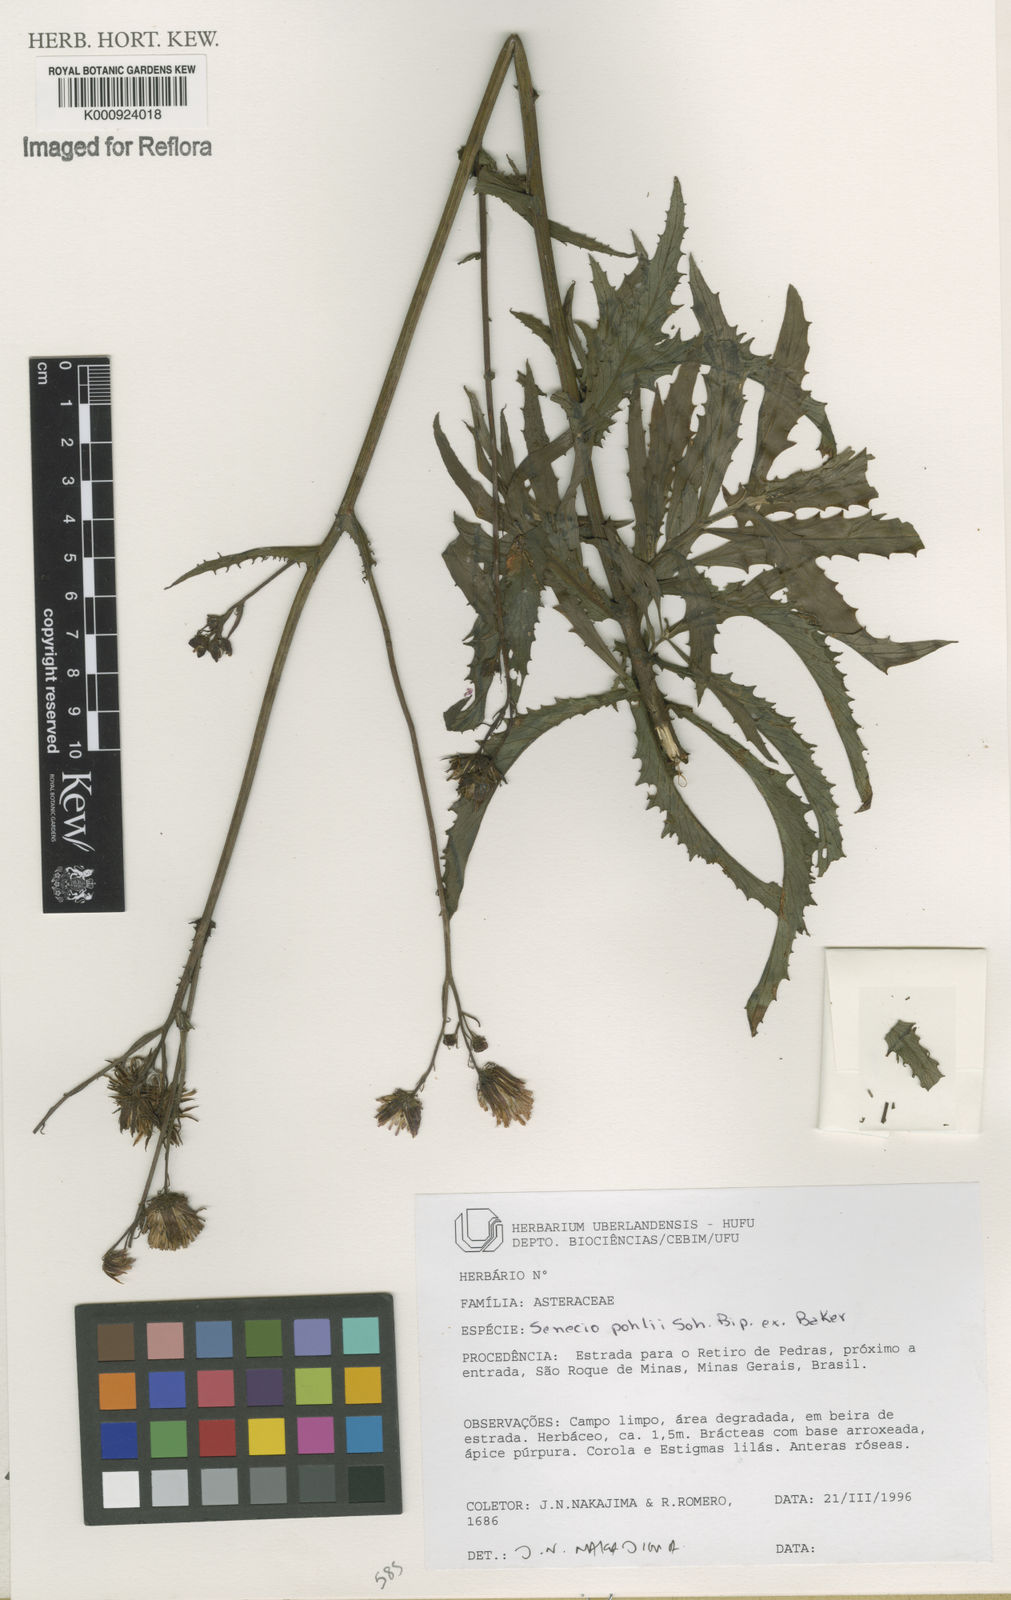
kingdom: Plantae
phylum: Tracheophyta
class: Magnoliopsida
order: Asterales
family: Asteraceae
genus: Pseudogynoxys
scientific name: Pseudogynoxys pohlii
